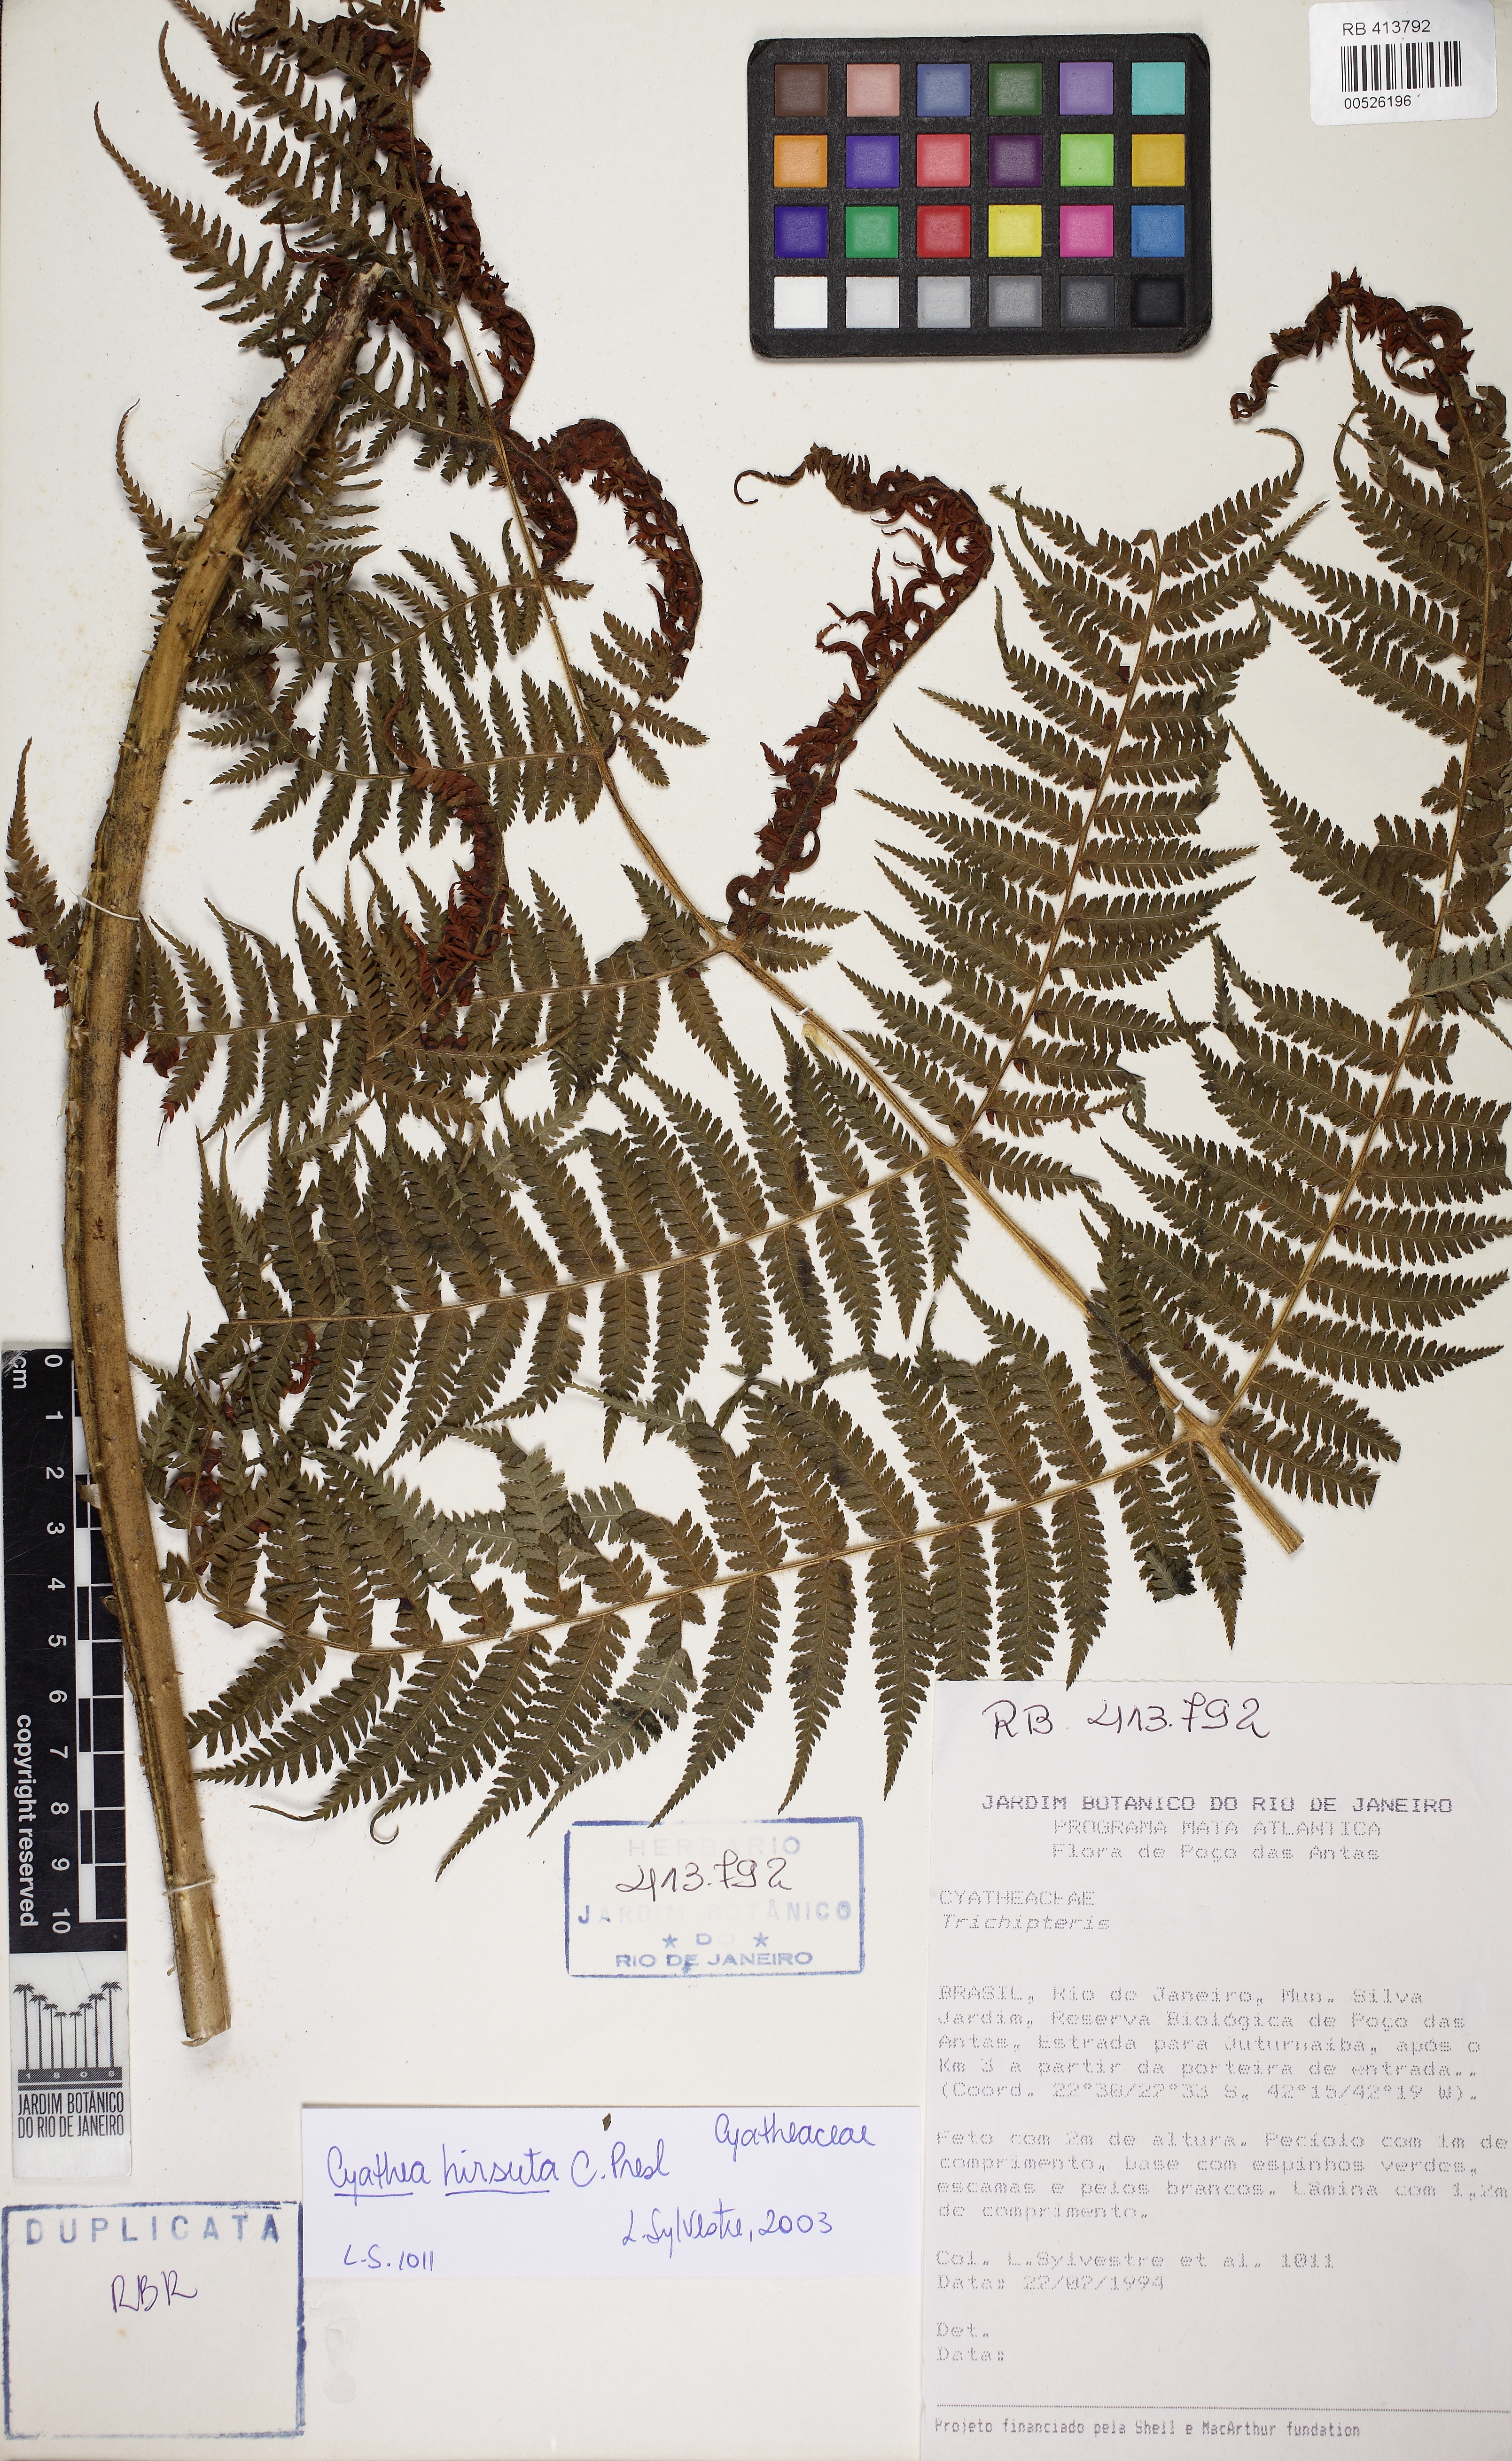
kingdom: Plantae
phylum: Tracheophyta
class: Polypodiopsida
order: Cyatheales
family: Cyatheaceae
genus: Cyathea
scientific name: Cyathea hirsuta
